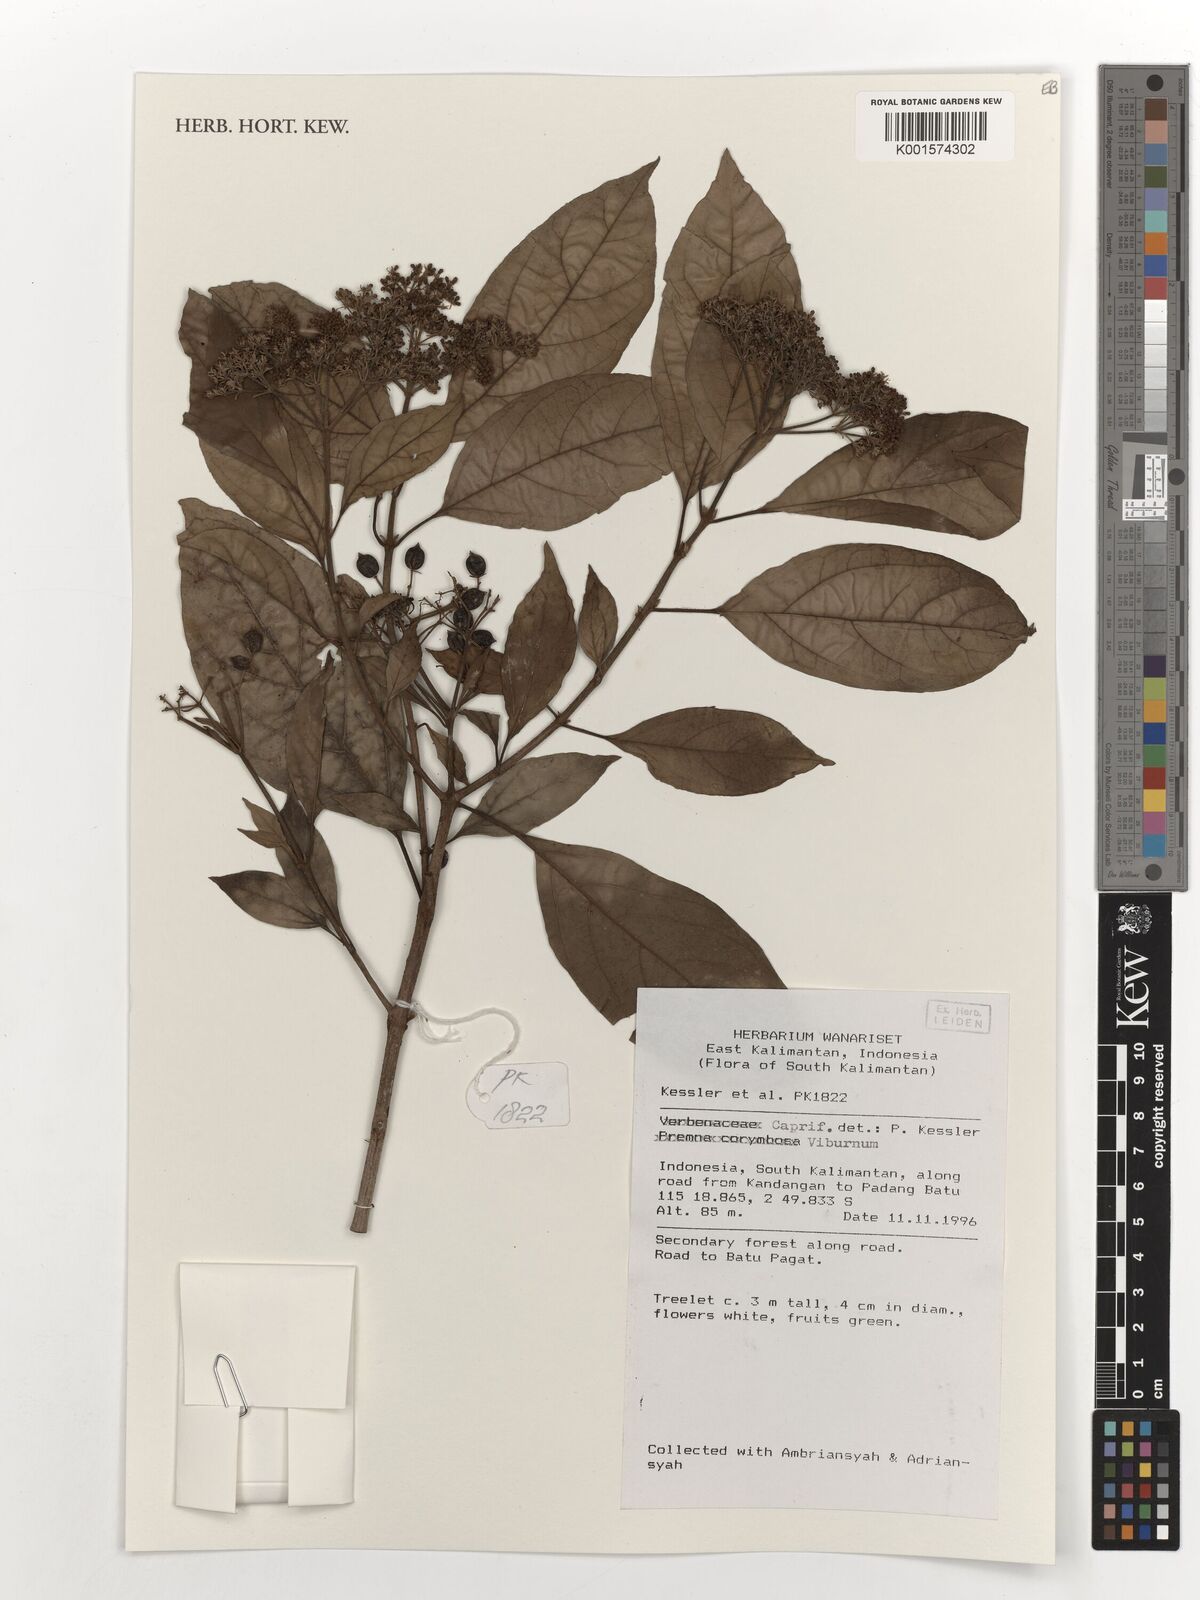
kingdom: Plantae
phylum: Tracheophyta
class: Magnoliopsida
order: Lamiales
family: Lamiaceae
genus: Premna
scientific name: Premna corymbosa
